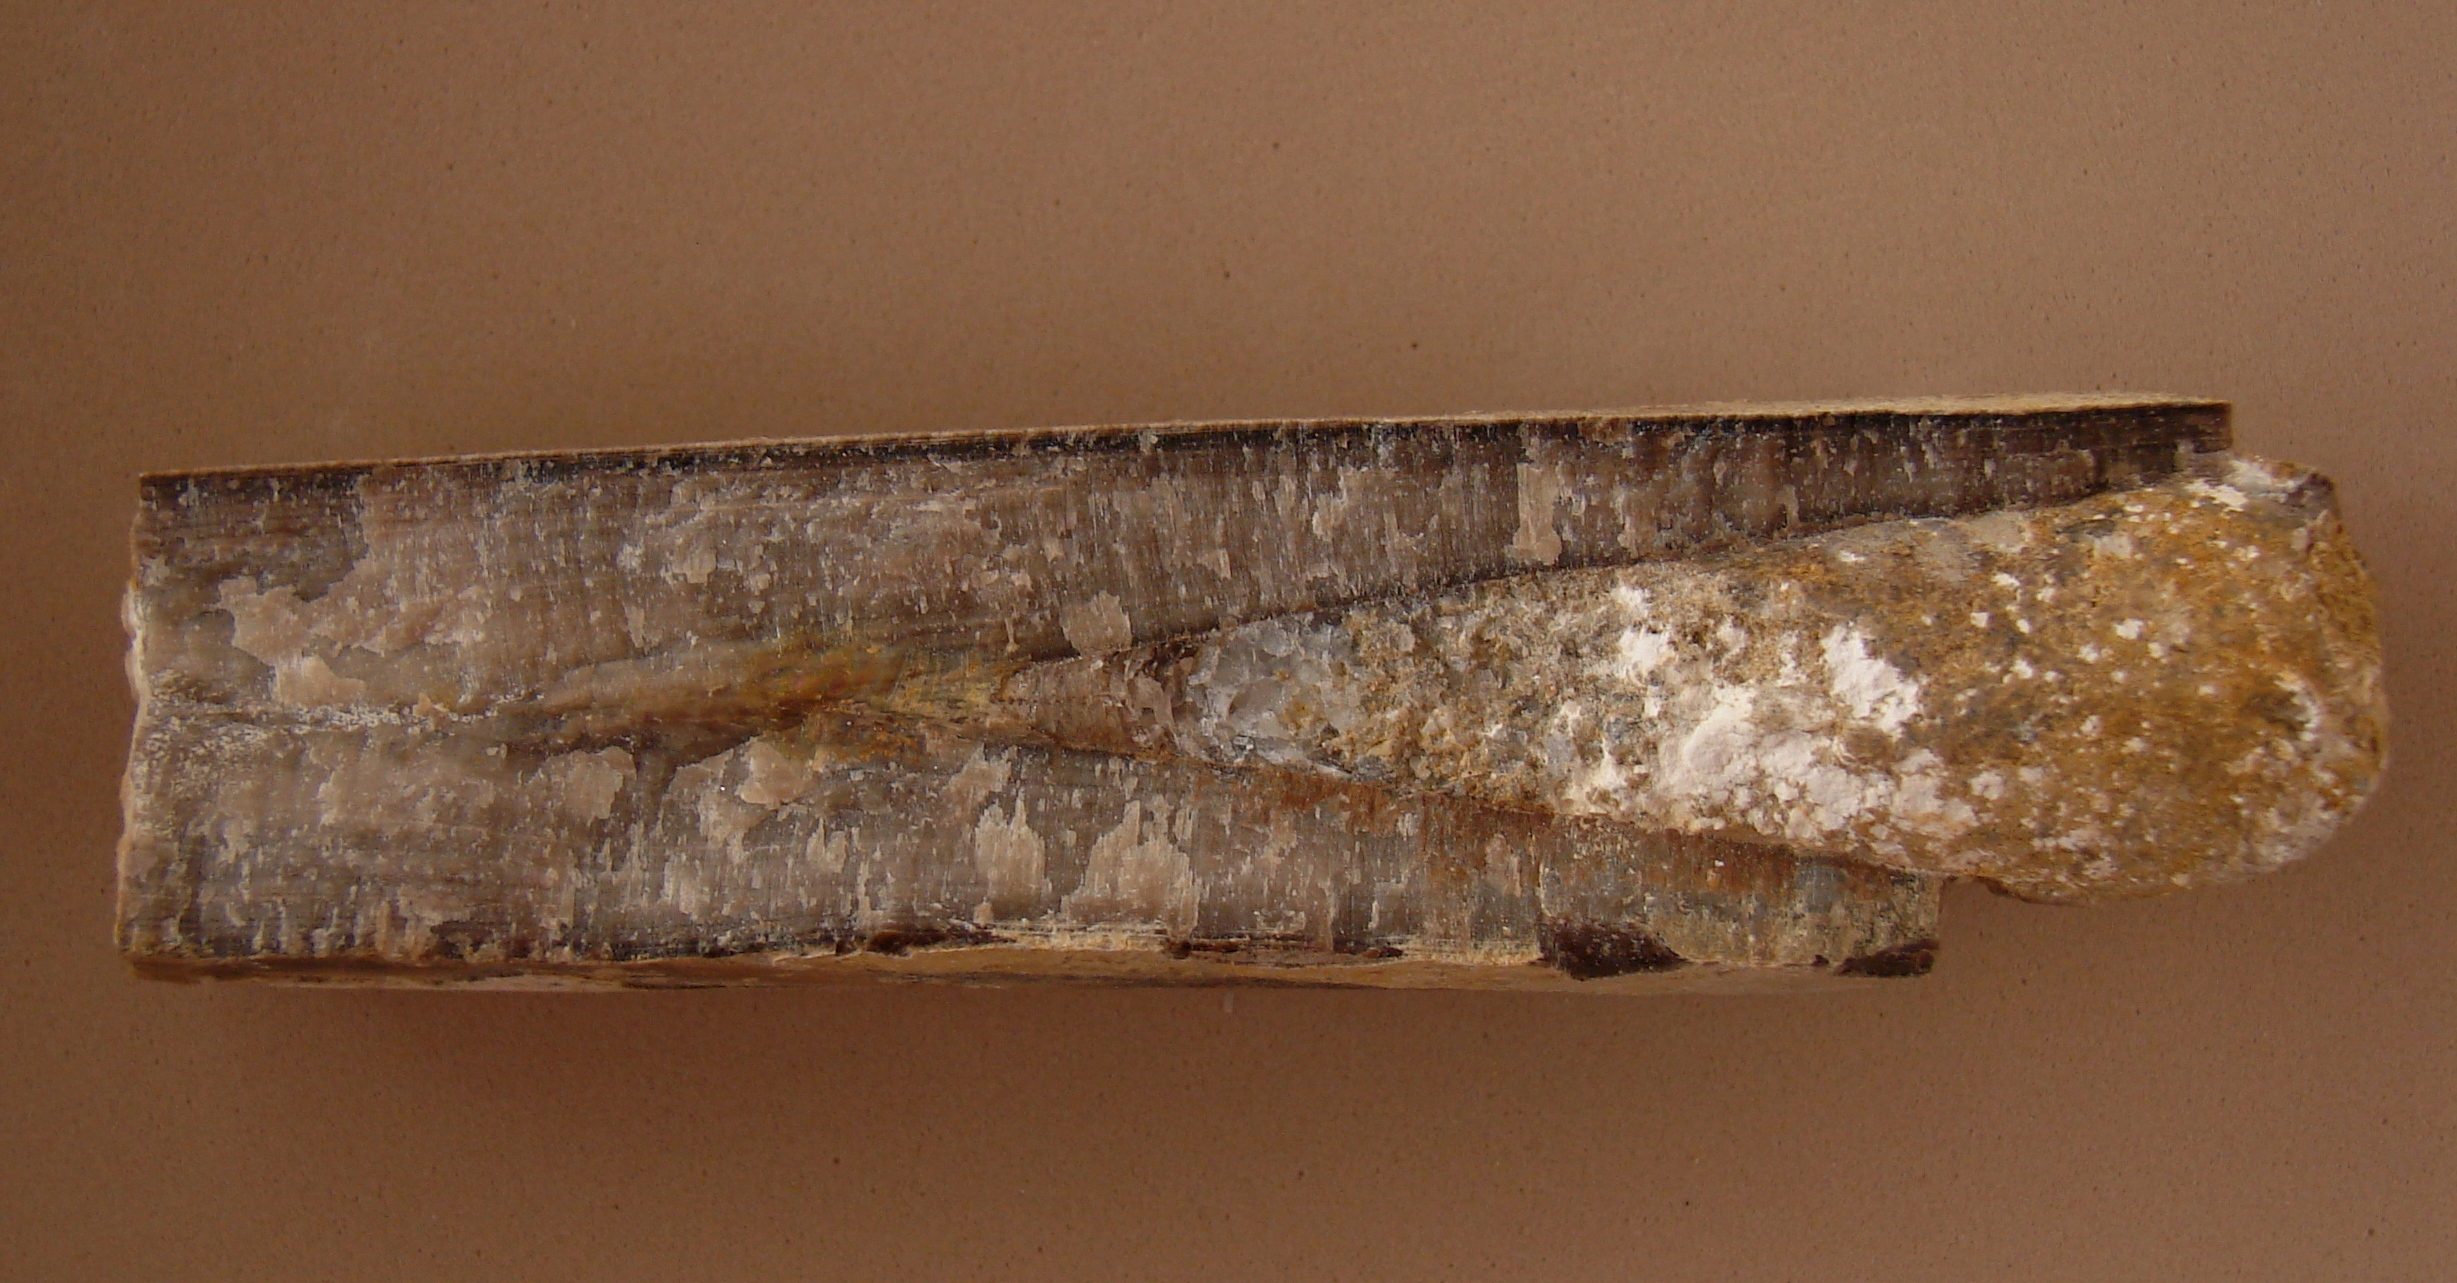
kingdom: Animalia
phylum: Mollusca
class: Cephalopoda
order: Belemnitida
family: Megateuthididae
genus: Megateuthis
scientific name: Megateuthis
